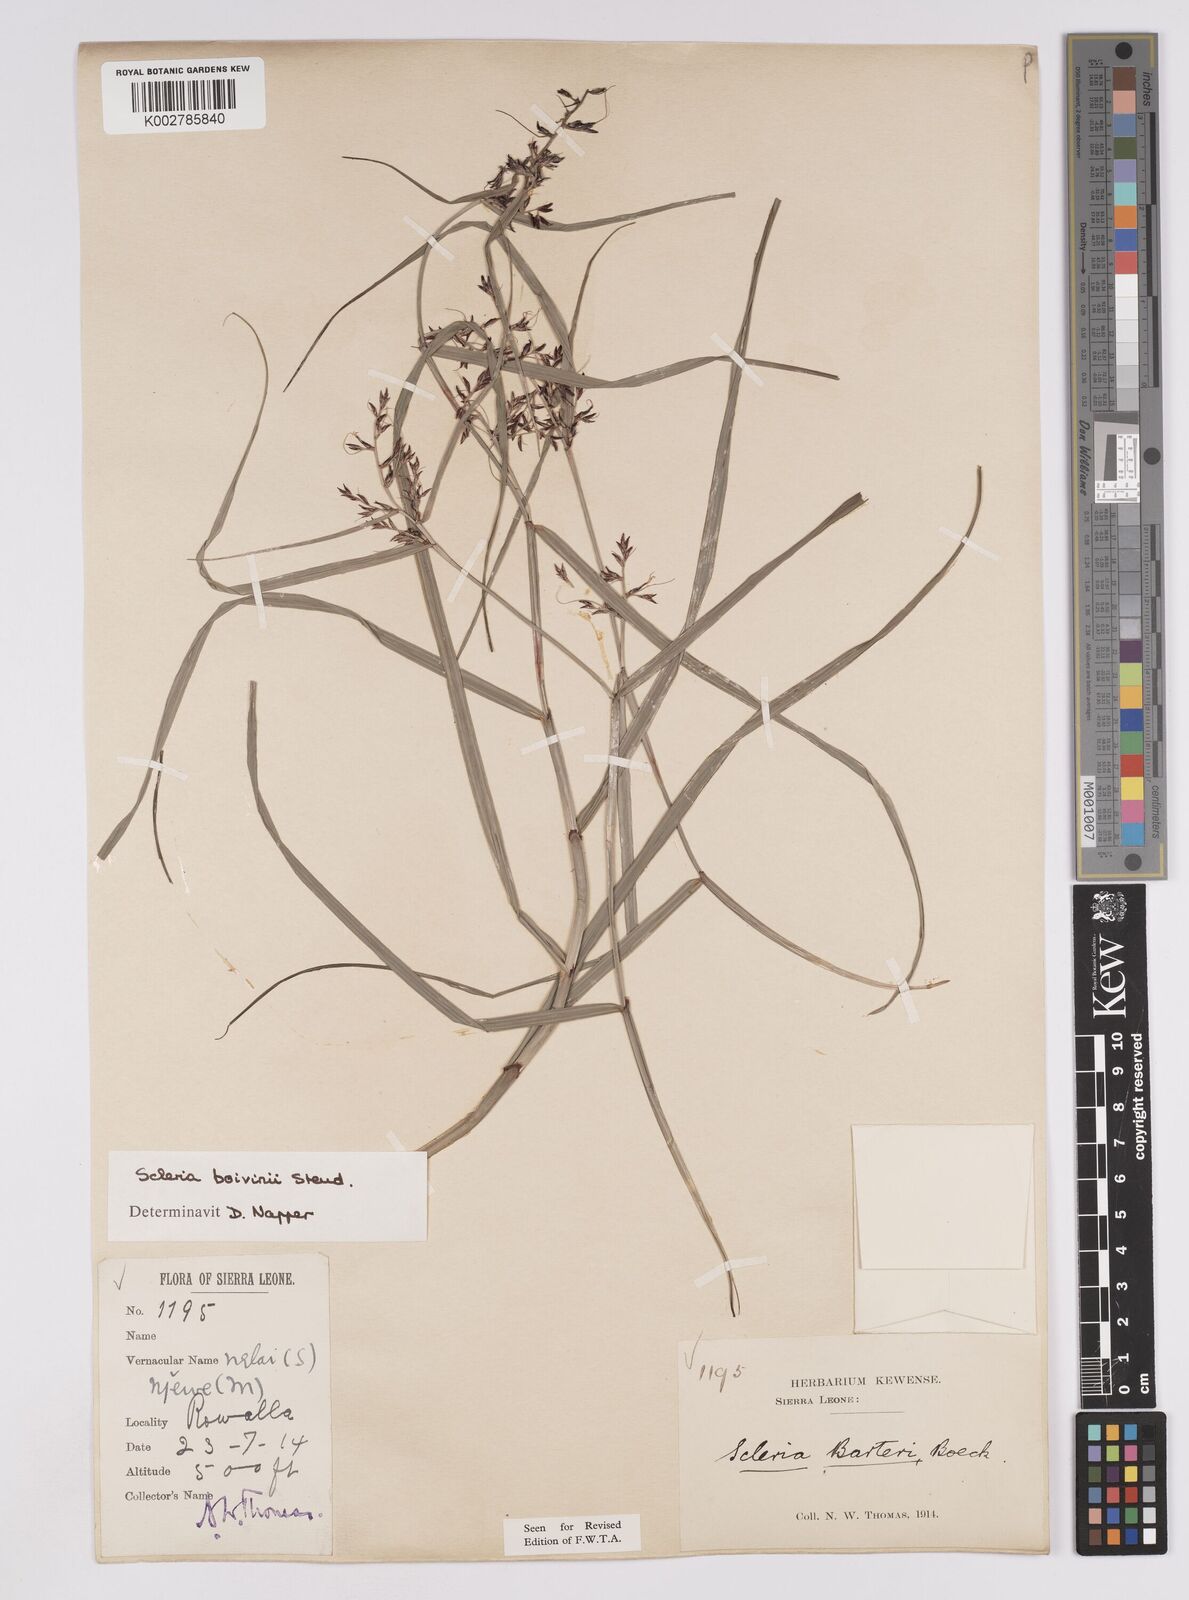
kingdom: Plantae
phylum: Tracheophyta
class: Liliopsida
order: Poales
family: Cyperaceae
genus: Scleria
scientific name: Scleria boivinii
